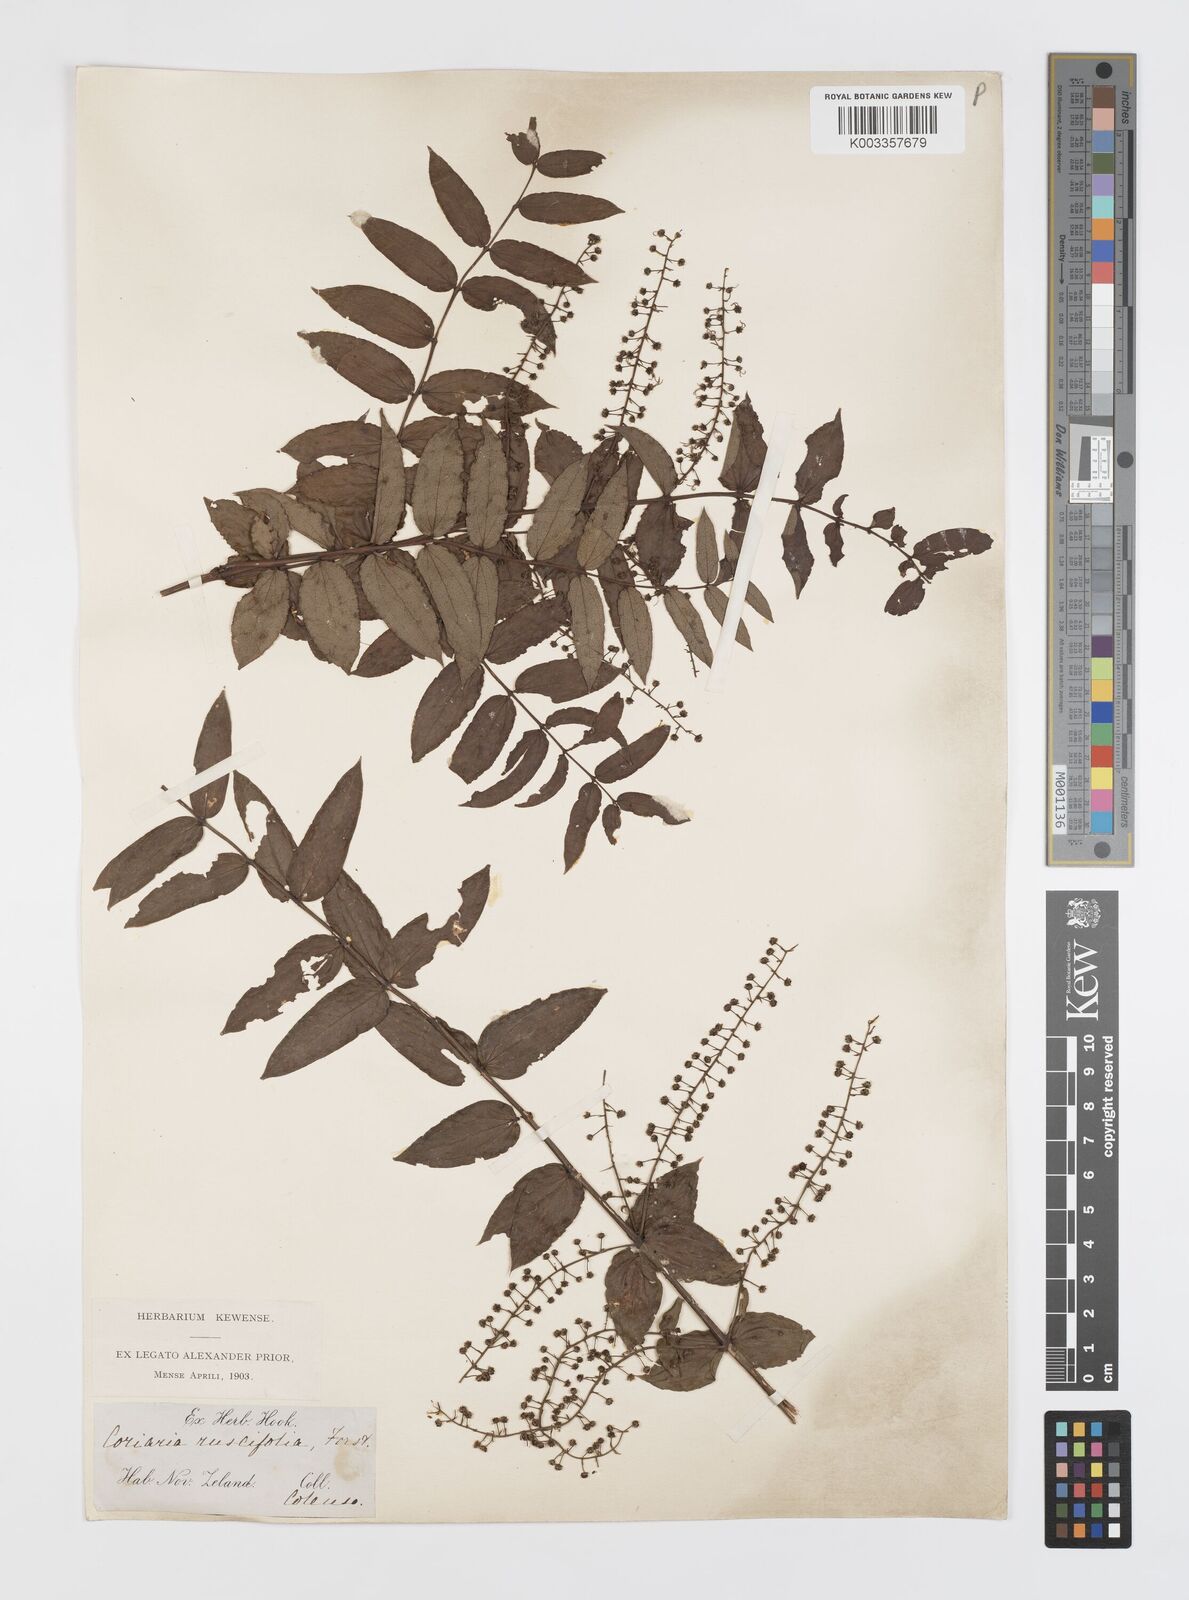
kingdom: Plantae
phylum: Tracheophyta
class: Magnoliopsida
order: Cucurbitales
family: Coriariaceae
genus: Coriaria
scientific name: Coriaria sarmentosa
